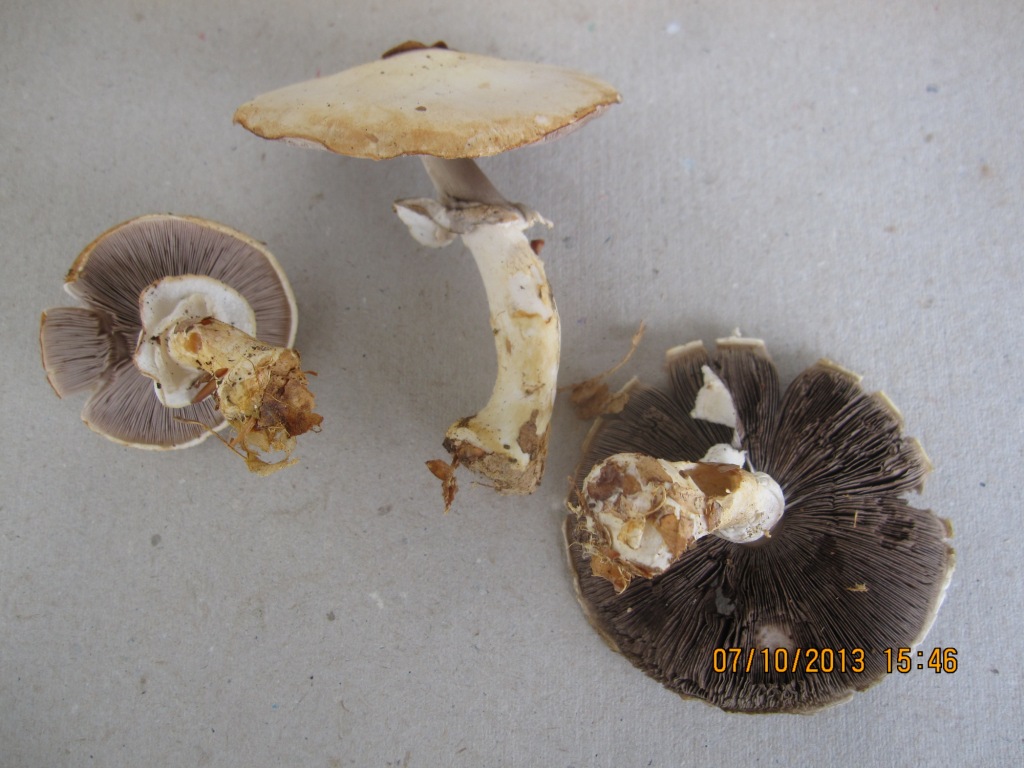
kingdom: Fungi
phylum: Basidiomycota
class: Agaricomycetes
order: Agaricales
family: Agaricaceae
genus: Agaricus
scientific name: Agaricus sylvicola
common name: skiveknoldet champignon
